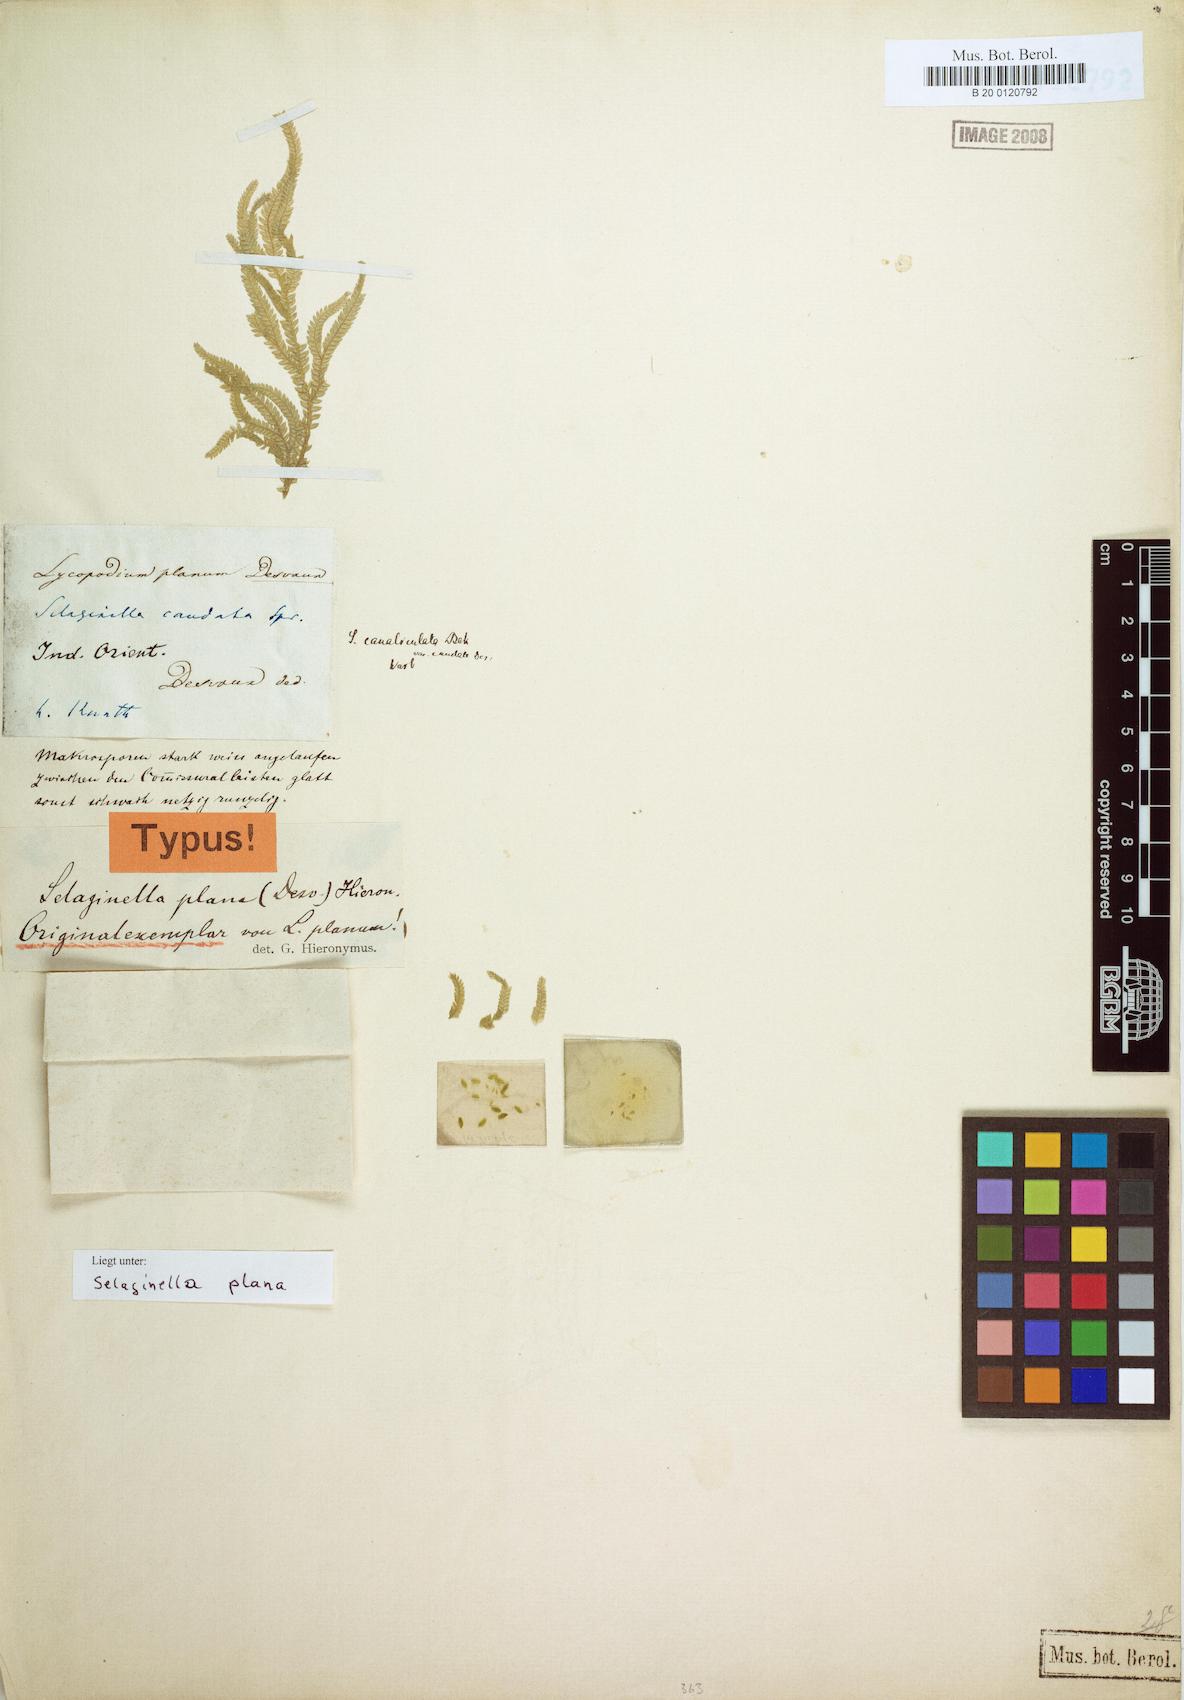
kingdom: Plantae
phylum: Tracheophyta
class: Lycopodiopsida
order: Selaginellales
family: Selaginellaceae
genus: Selaginella
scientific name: Selaginella plana
